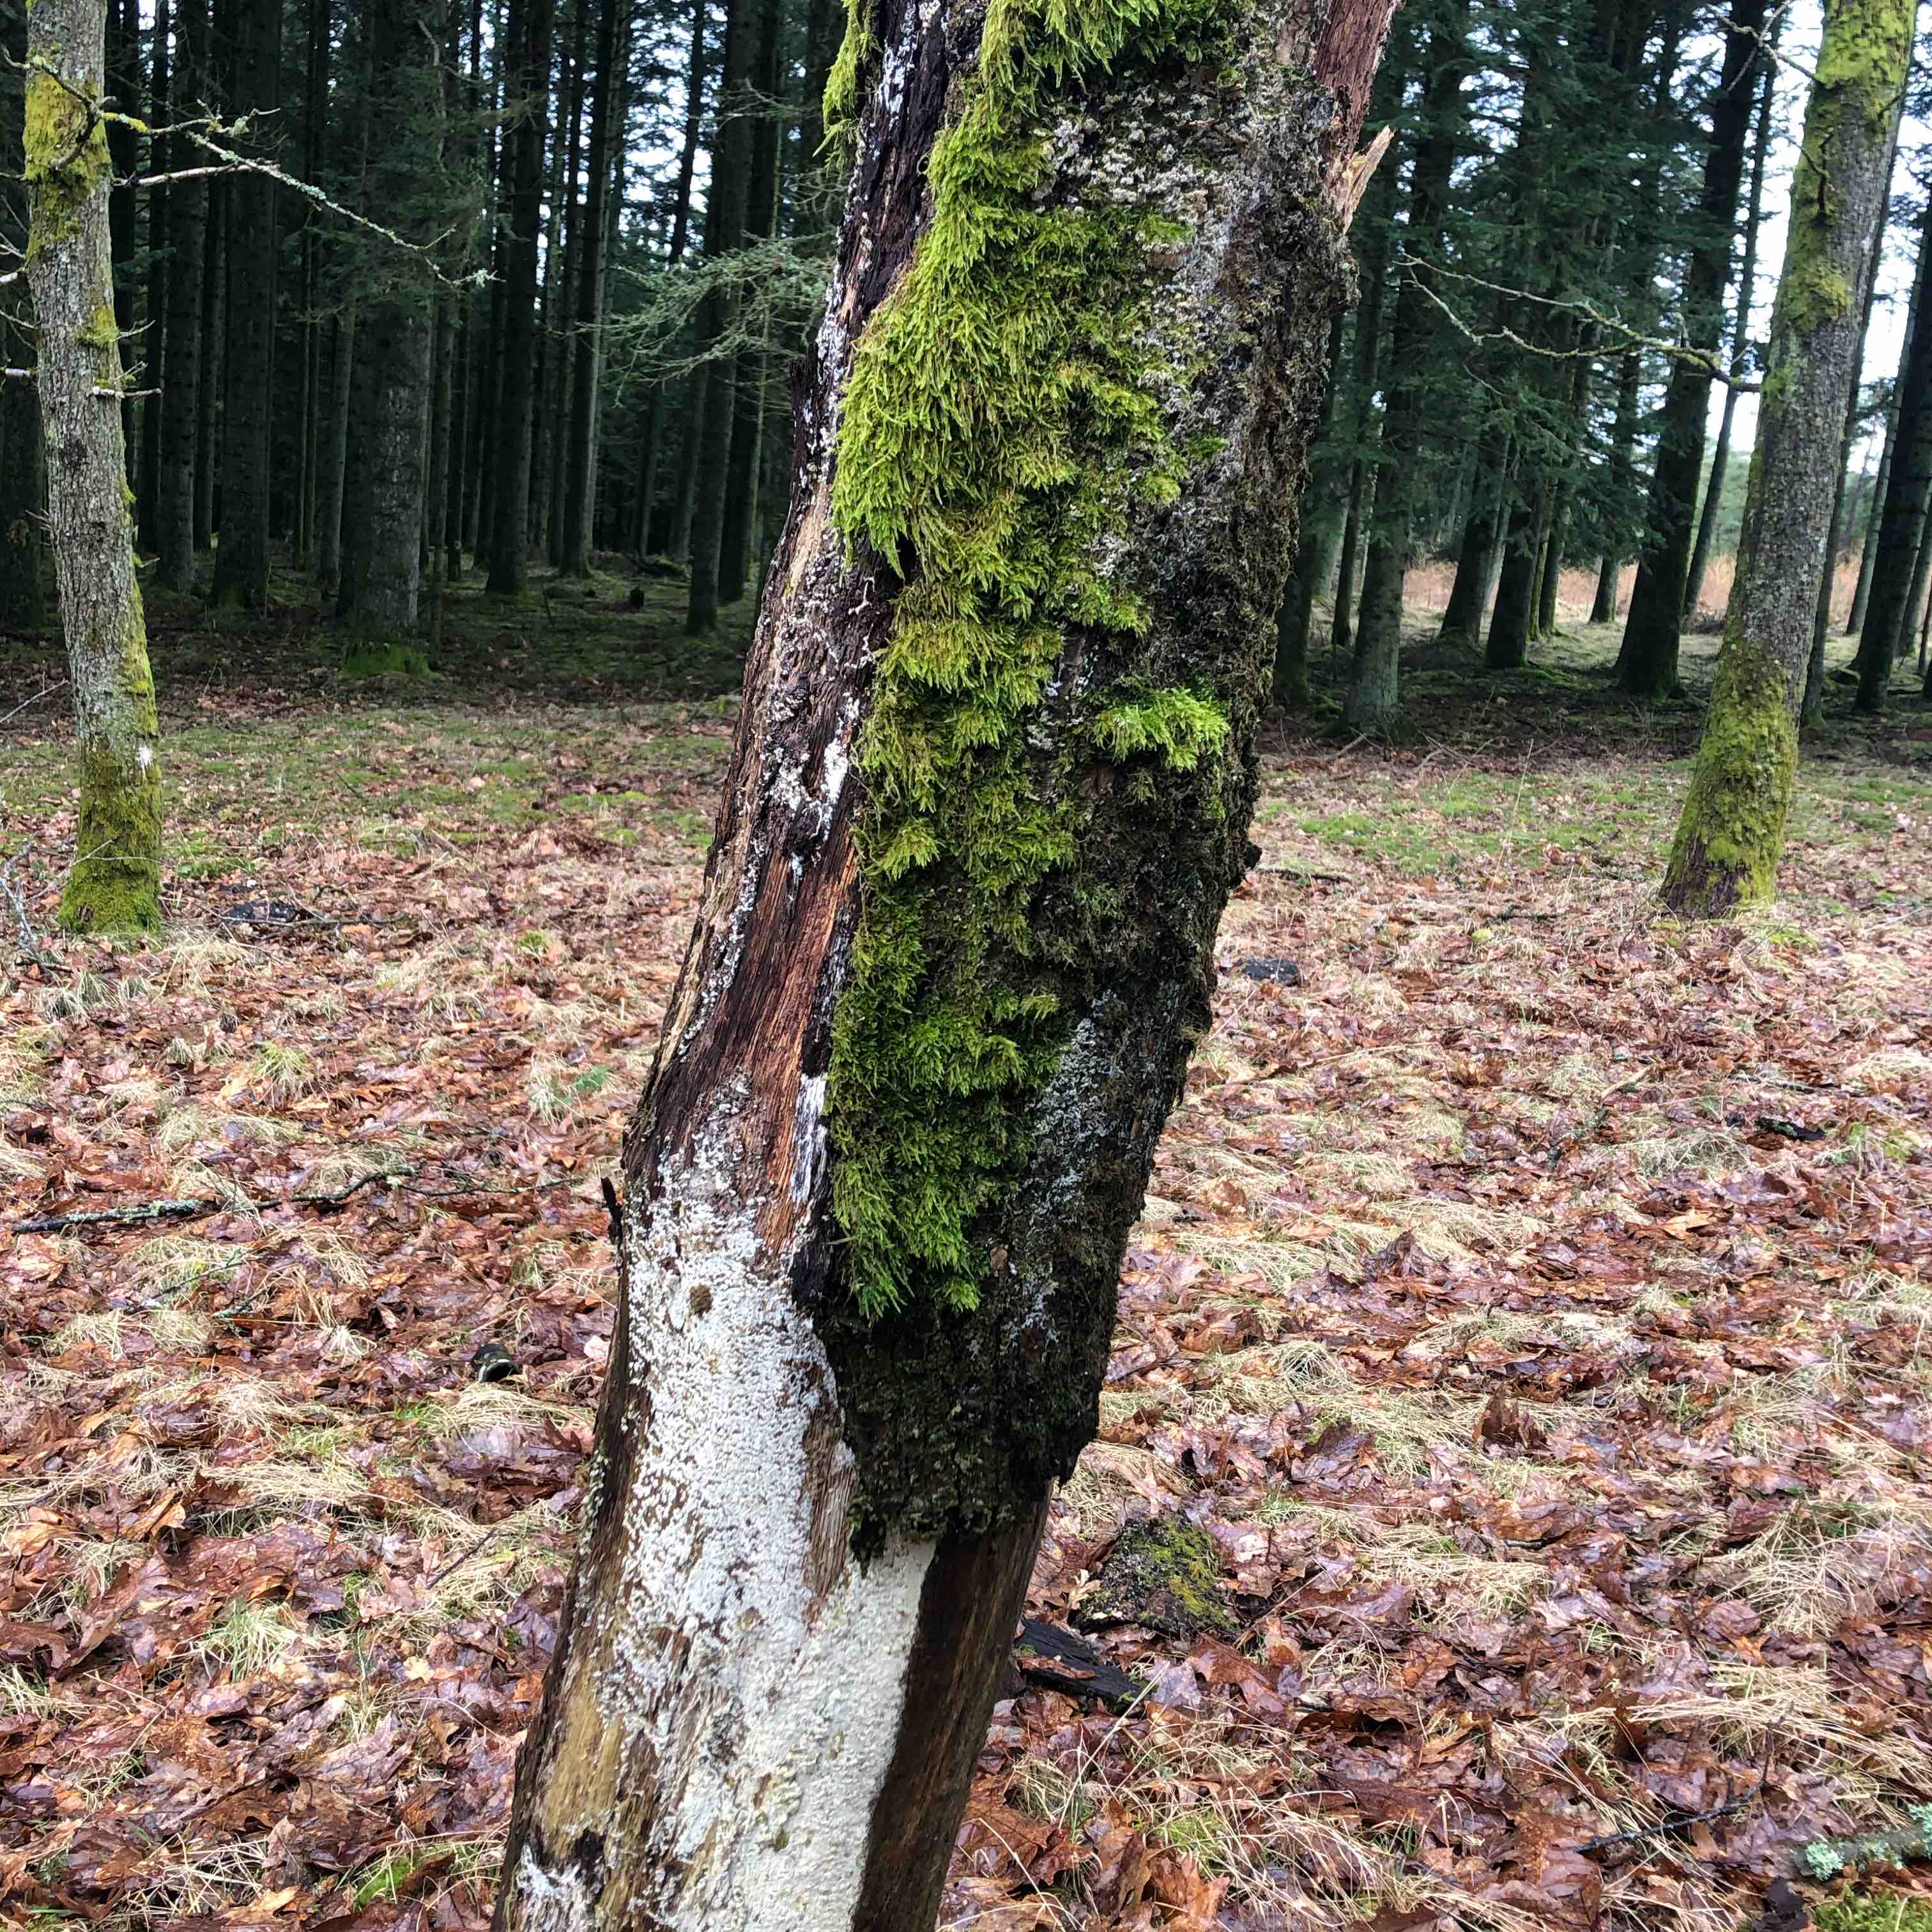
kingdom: Fungi
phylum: Basidiomycota
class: Agaricomycetes
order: Hymenochaetales
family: Schizoporaceae
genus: Schizopora
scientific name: Schizopora paradoxa
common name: hvid tandsvamp
